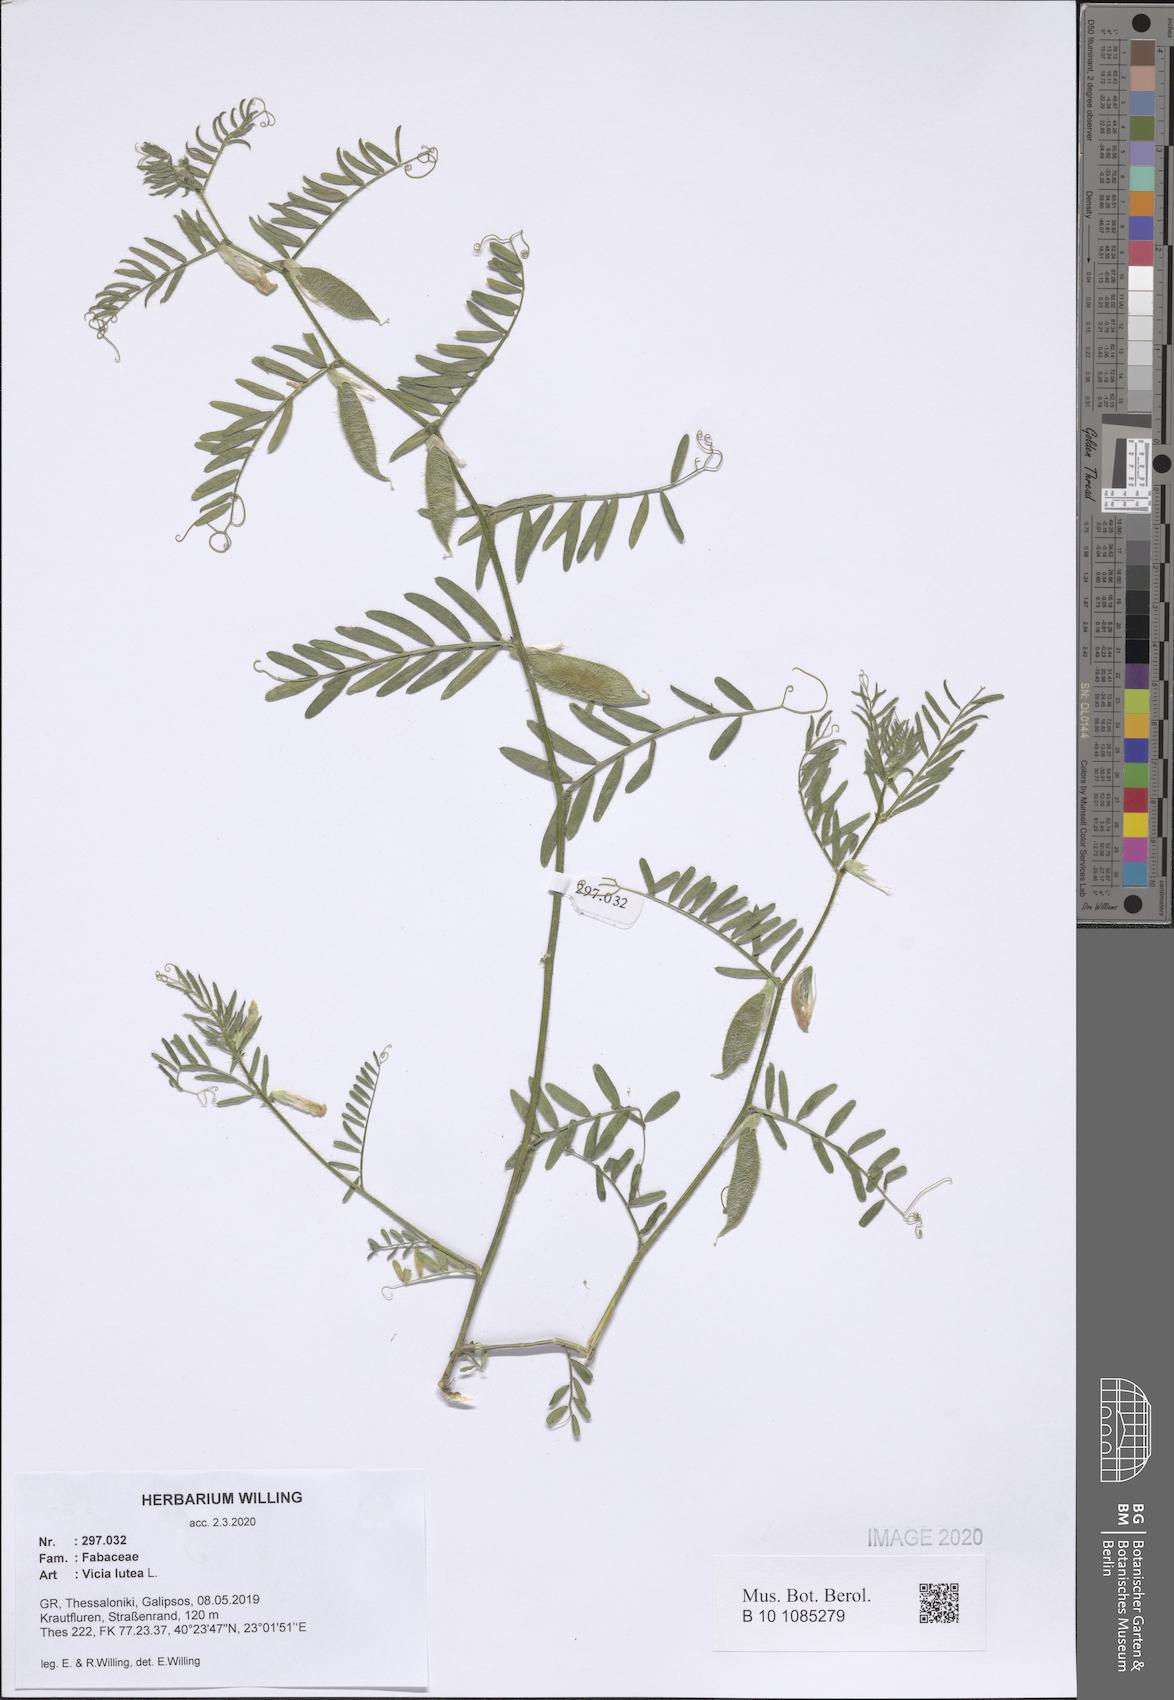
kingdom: Plantae
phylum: Tracheophyta
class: Magnoliopsida
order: Fabales
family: Fabaceae
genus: Vicia
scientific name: Vicia lutea
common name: Smooth yellow vetch
